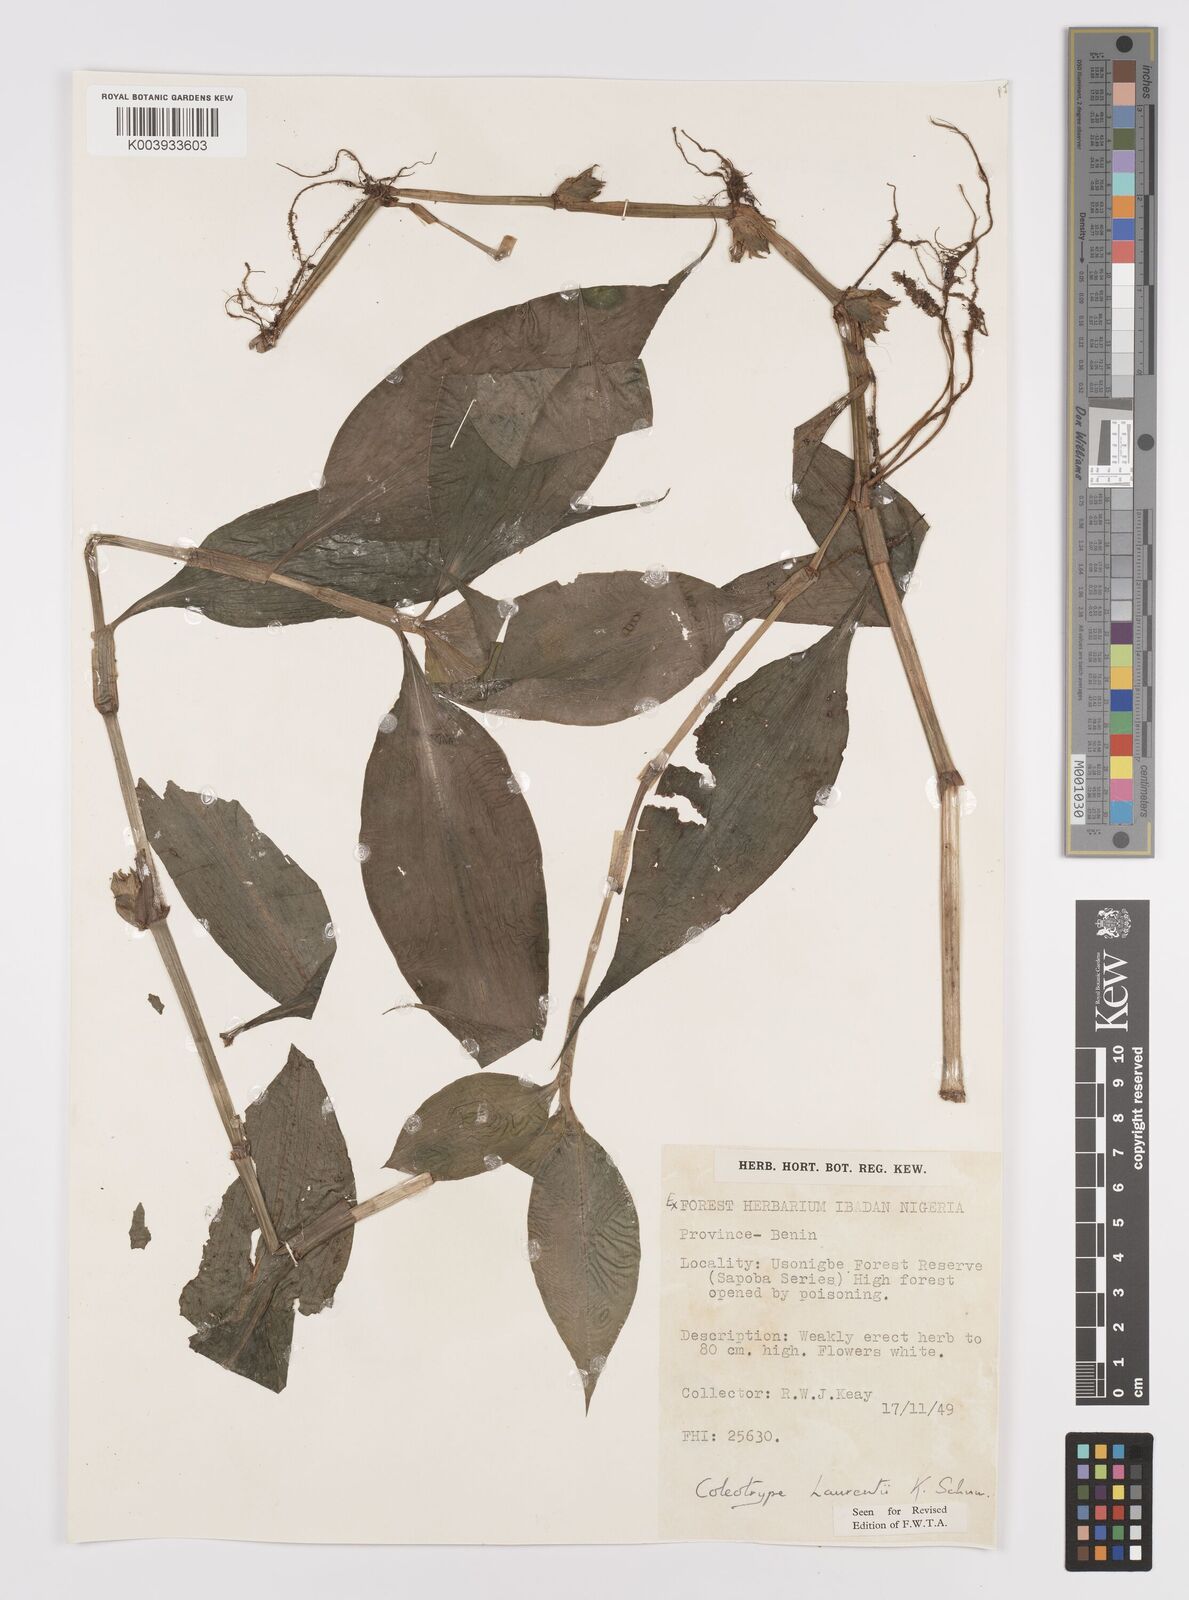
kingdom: Plantae
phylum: Tracheophyta
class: Liliopsida
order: Commelinales
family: Commelinaceae
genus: Coleotrype
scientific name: Coleotrype laurentii
